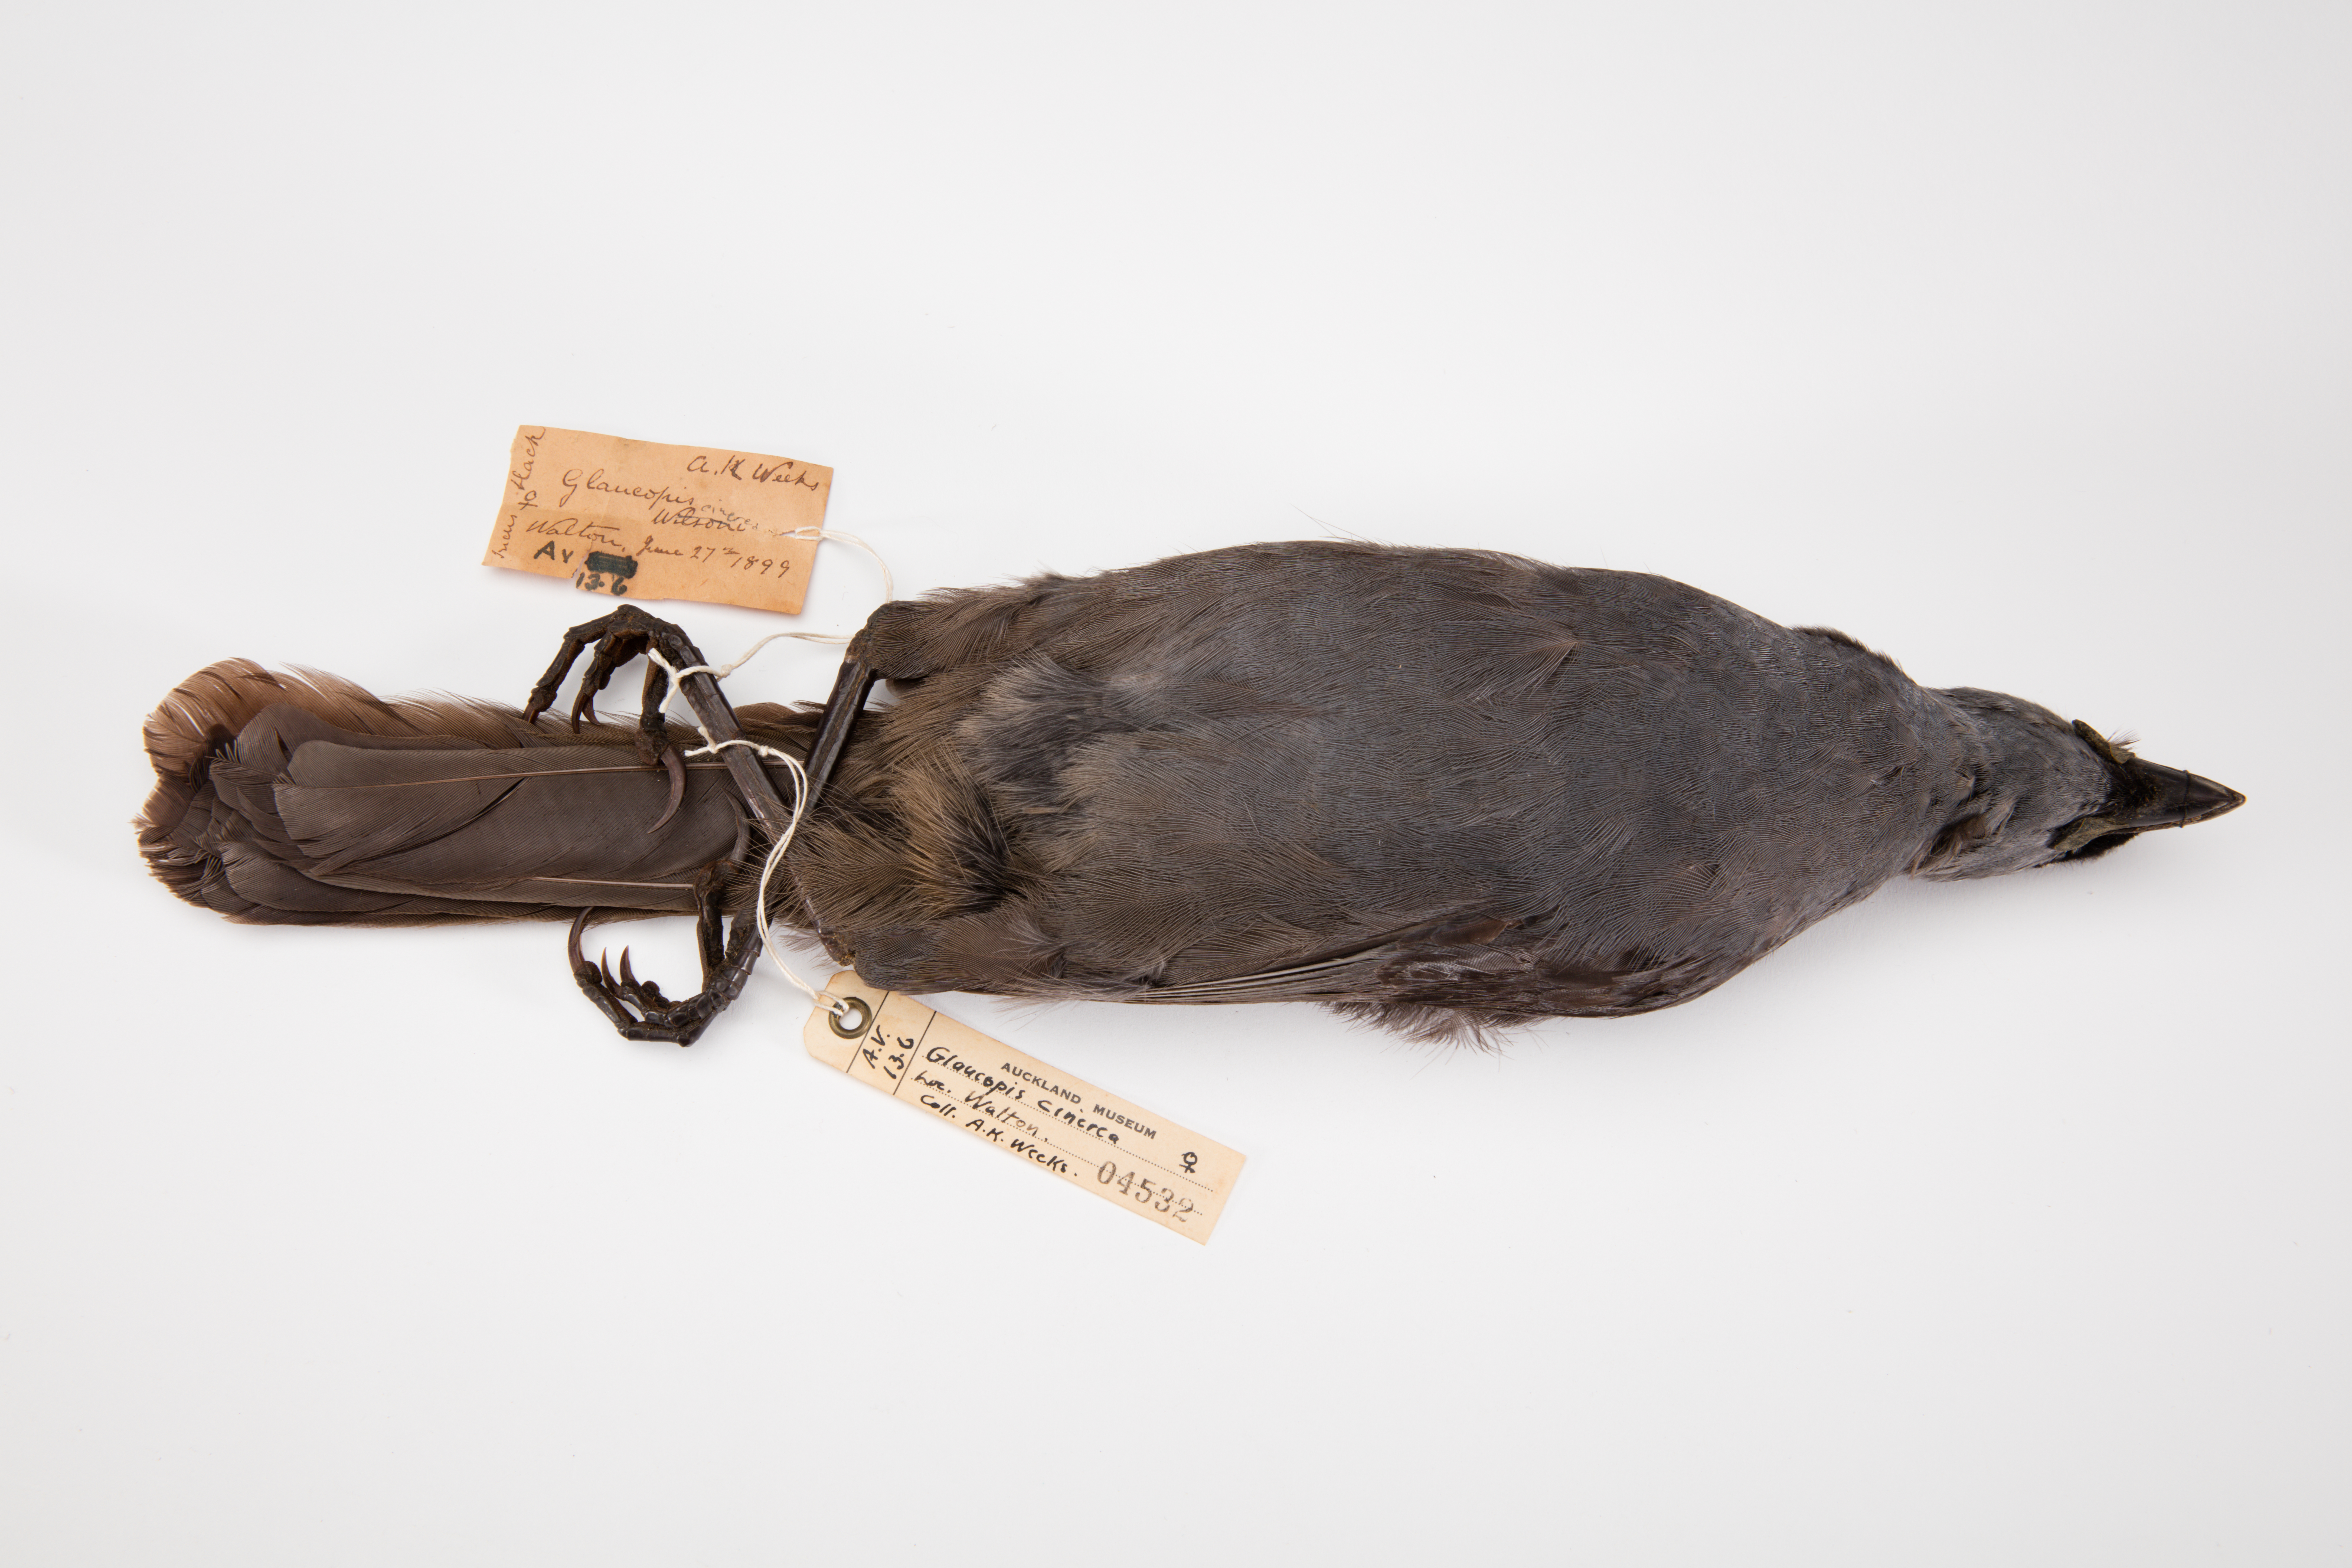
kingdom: Animalia
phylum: Chordata
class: Aves
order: Passeriformes
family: Callaeatidae
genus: Callaeas
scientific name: Callaeas cinereus
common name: South island kokako
